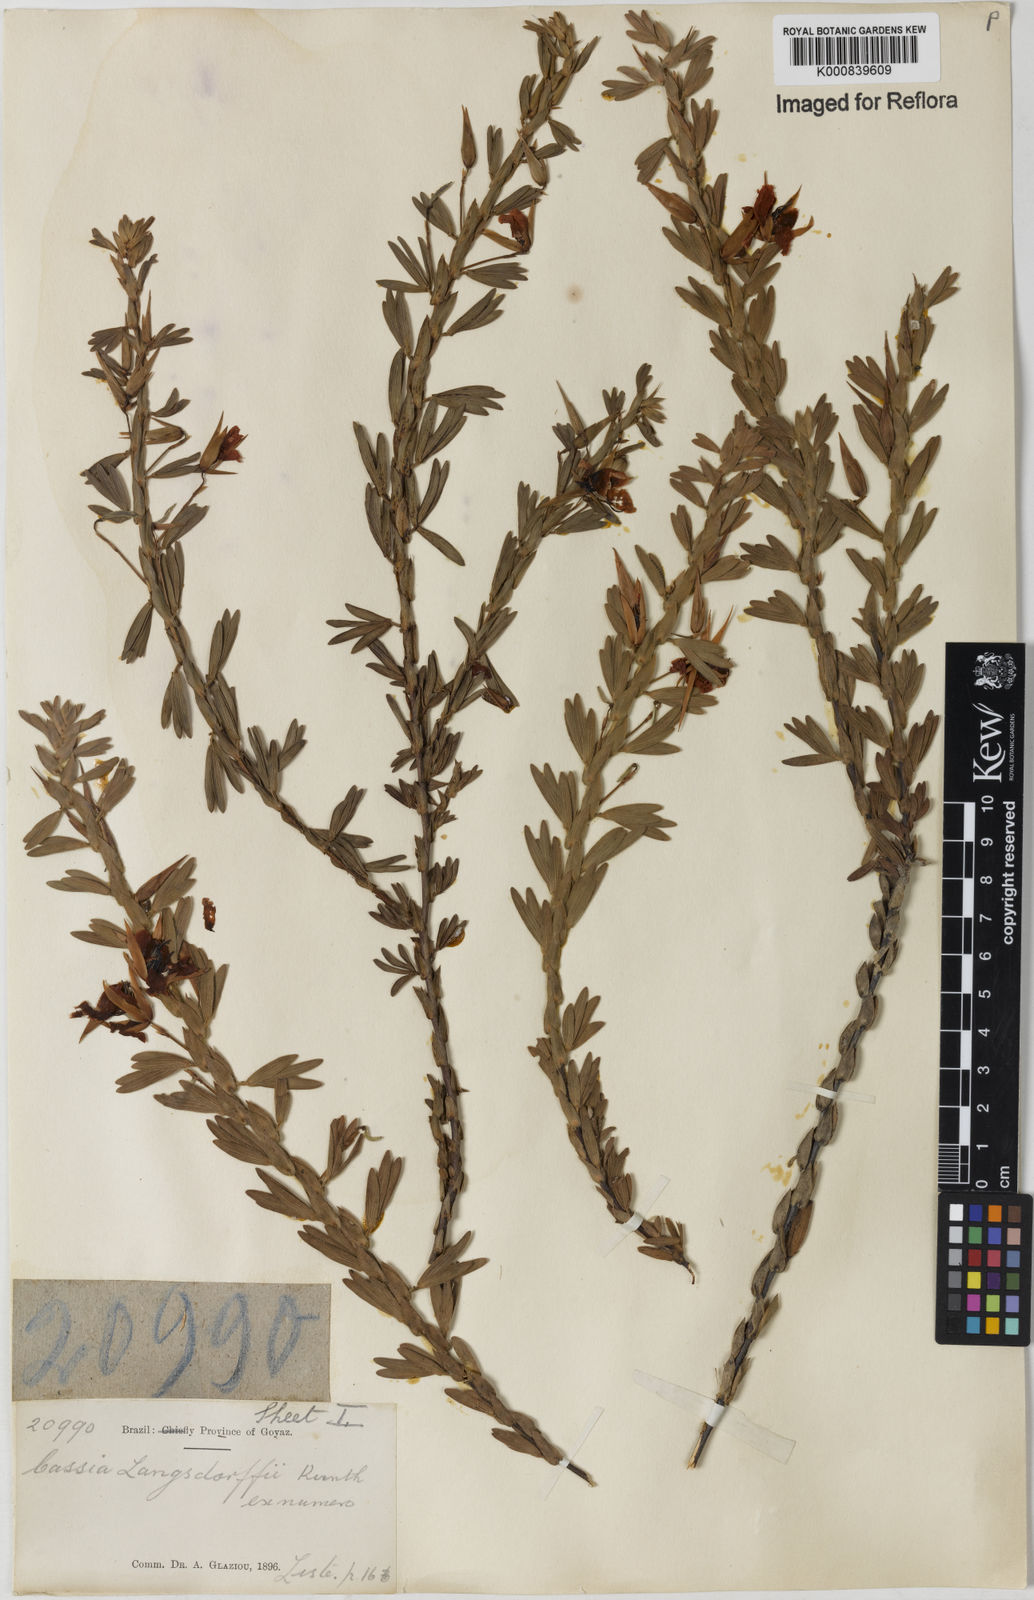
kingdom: Plantae
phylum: Tracheophyta
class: Magnoliopsida
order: Fabales
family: Fabaceae
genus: Chamaecrista
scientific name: Chamaecrista langsdorffii
